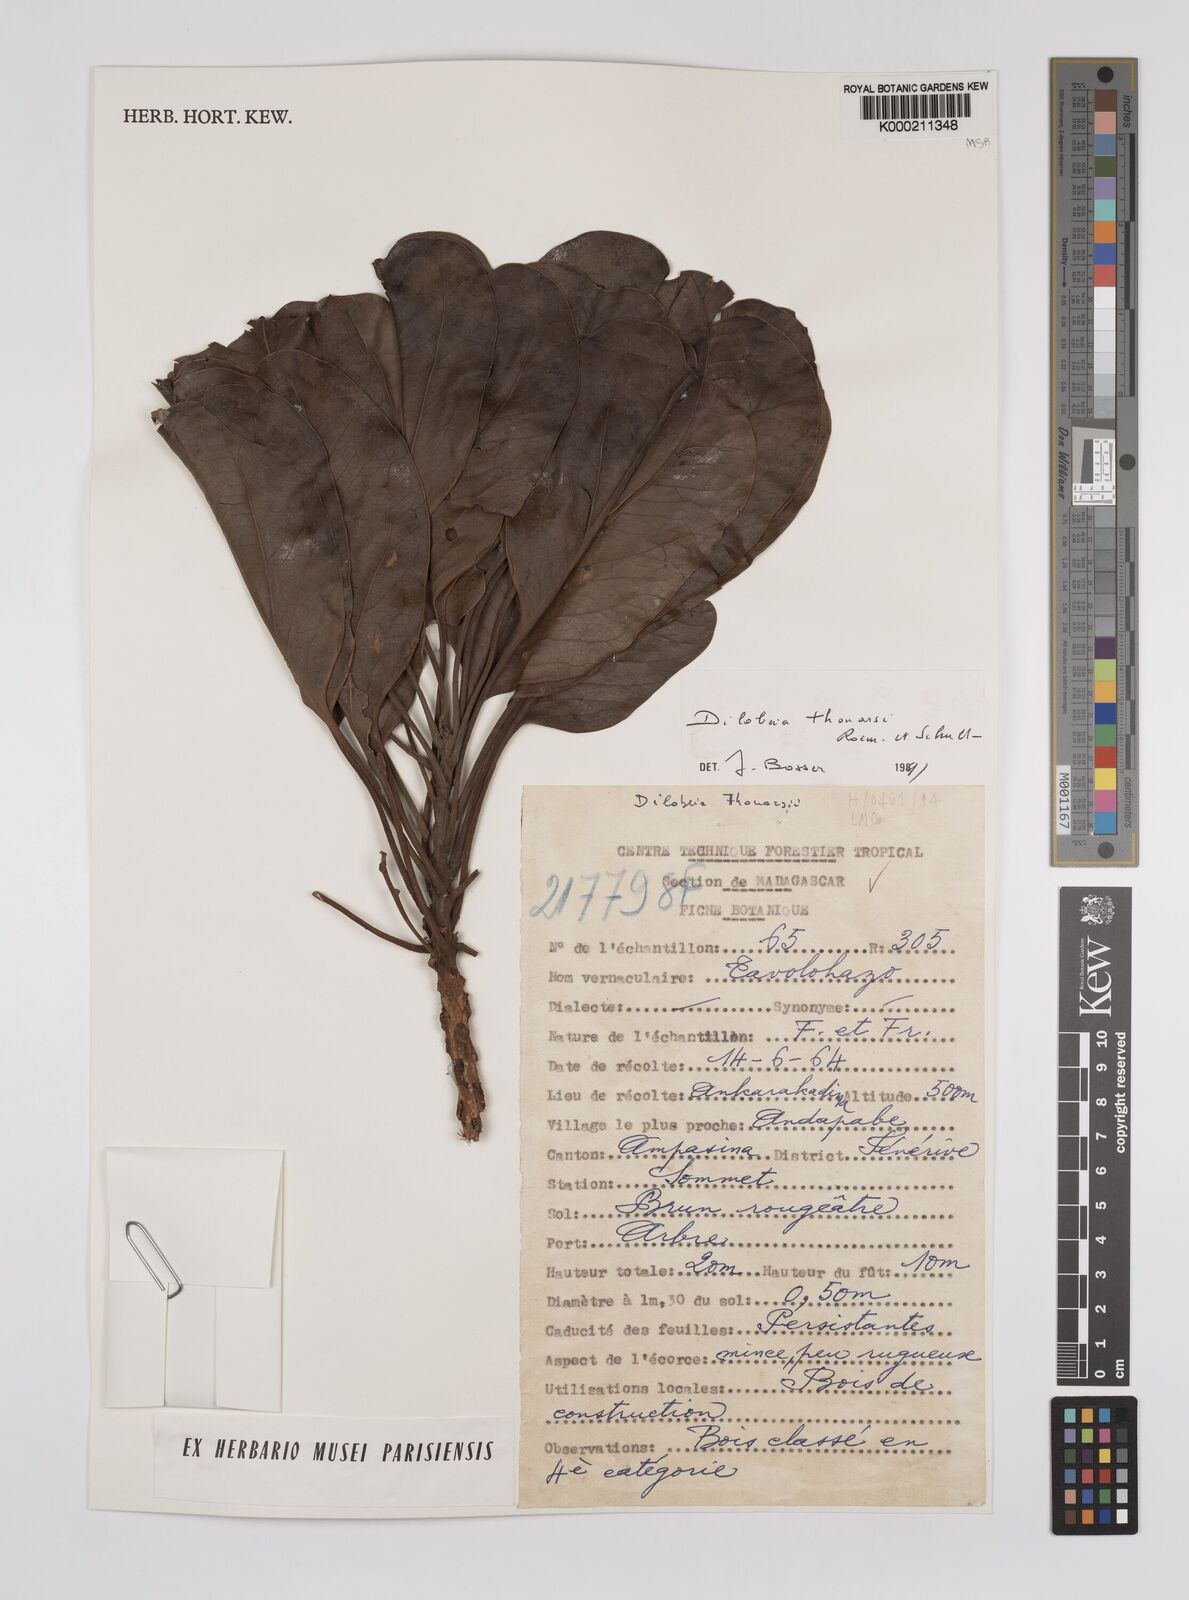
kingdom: Plantae
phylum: Tracheophyta
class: Magnoliopsida
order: Proteales
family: Proteaceae
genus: Dilobeia
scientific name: Dilobeia thouarsii
